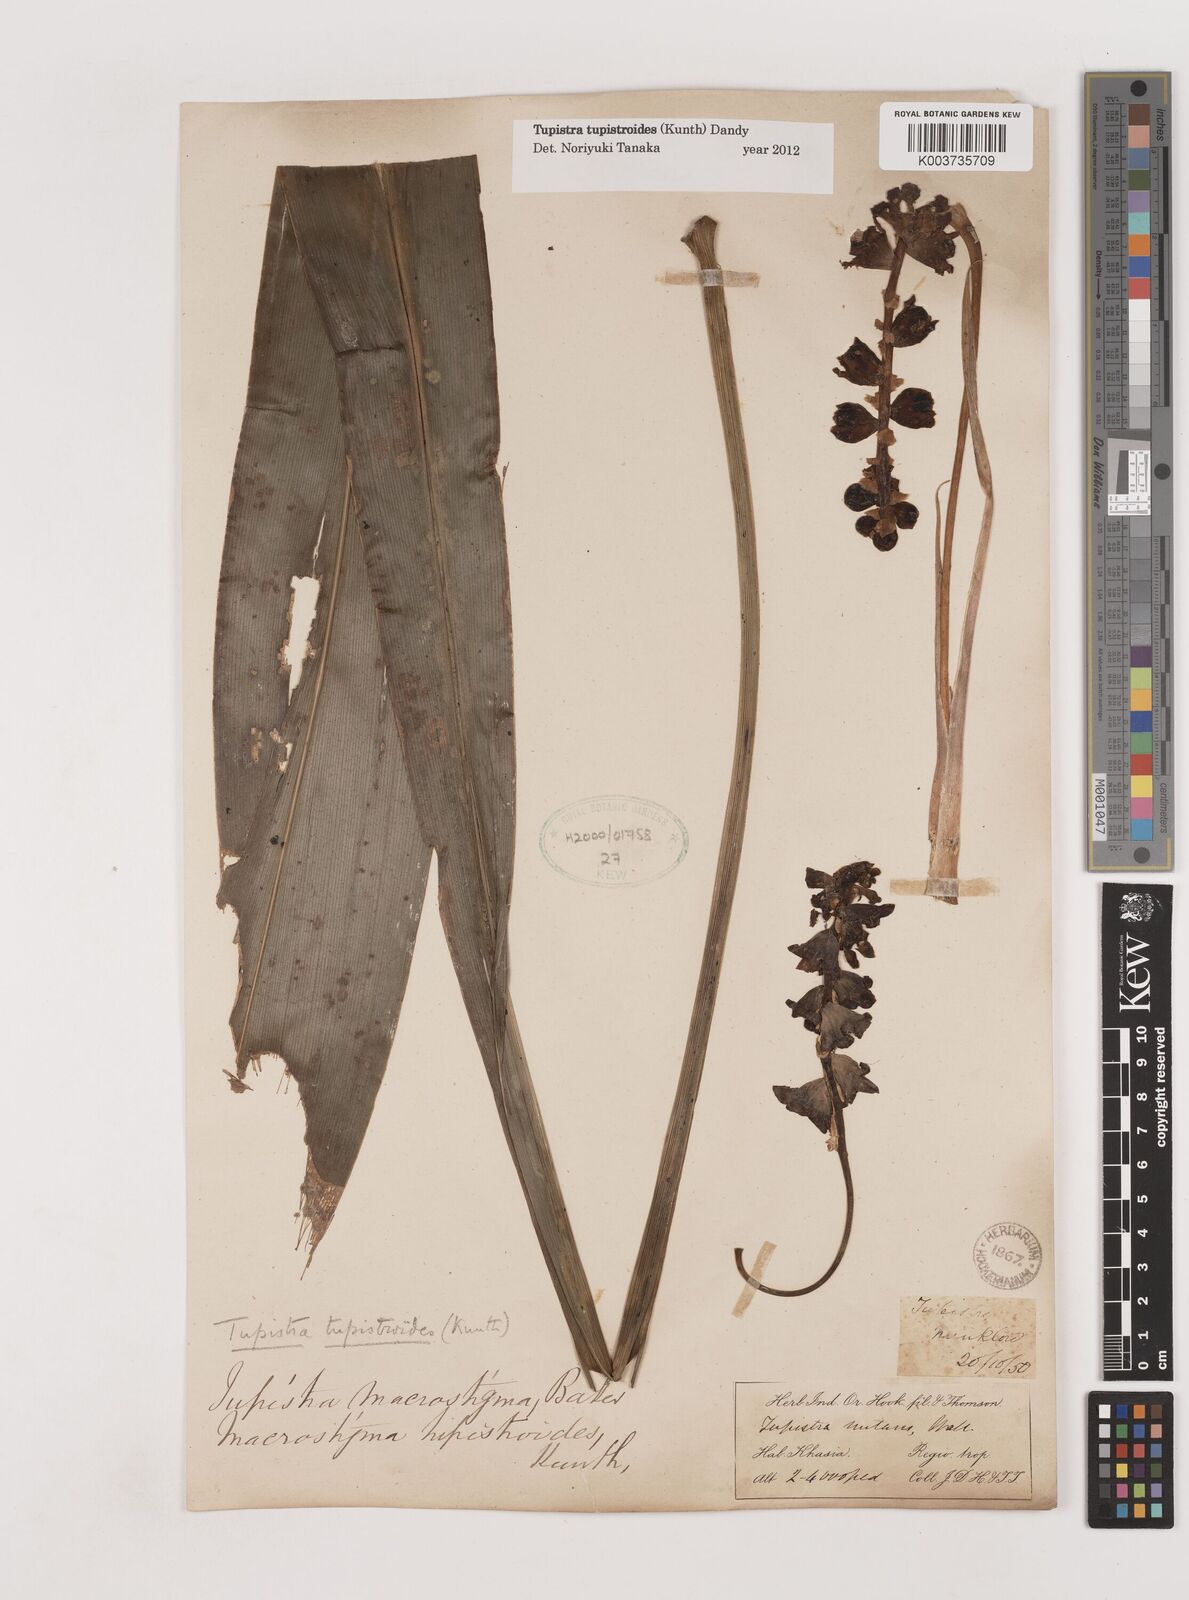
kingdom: Plantae
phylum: Tracheophyta
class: Liliopsida
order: Asparagales
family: Asparagaceae
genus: Tupistra
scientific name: Tupistra tupistroides
